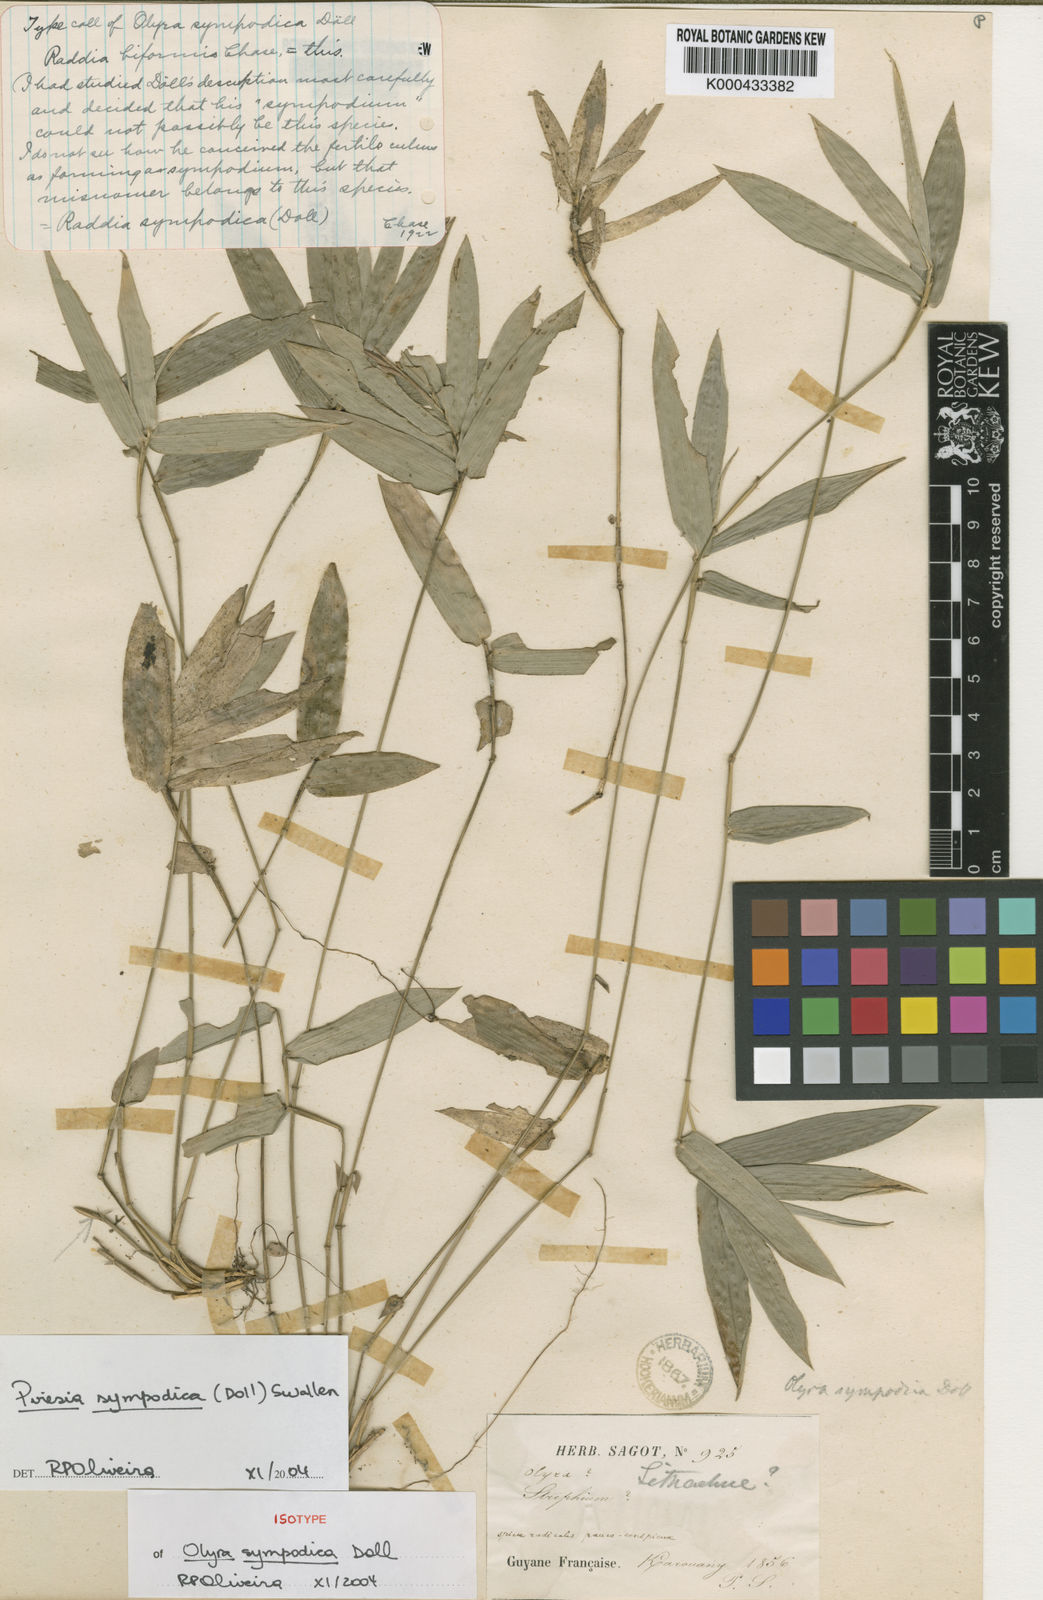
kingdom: Plantae
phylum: Tracheophyta
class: Liliopsida
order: Poales
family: Poaceae
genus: Piresia
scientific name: Piresia sympodica
